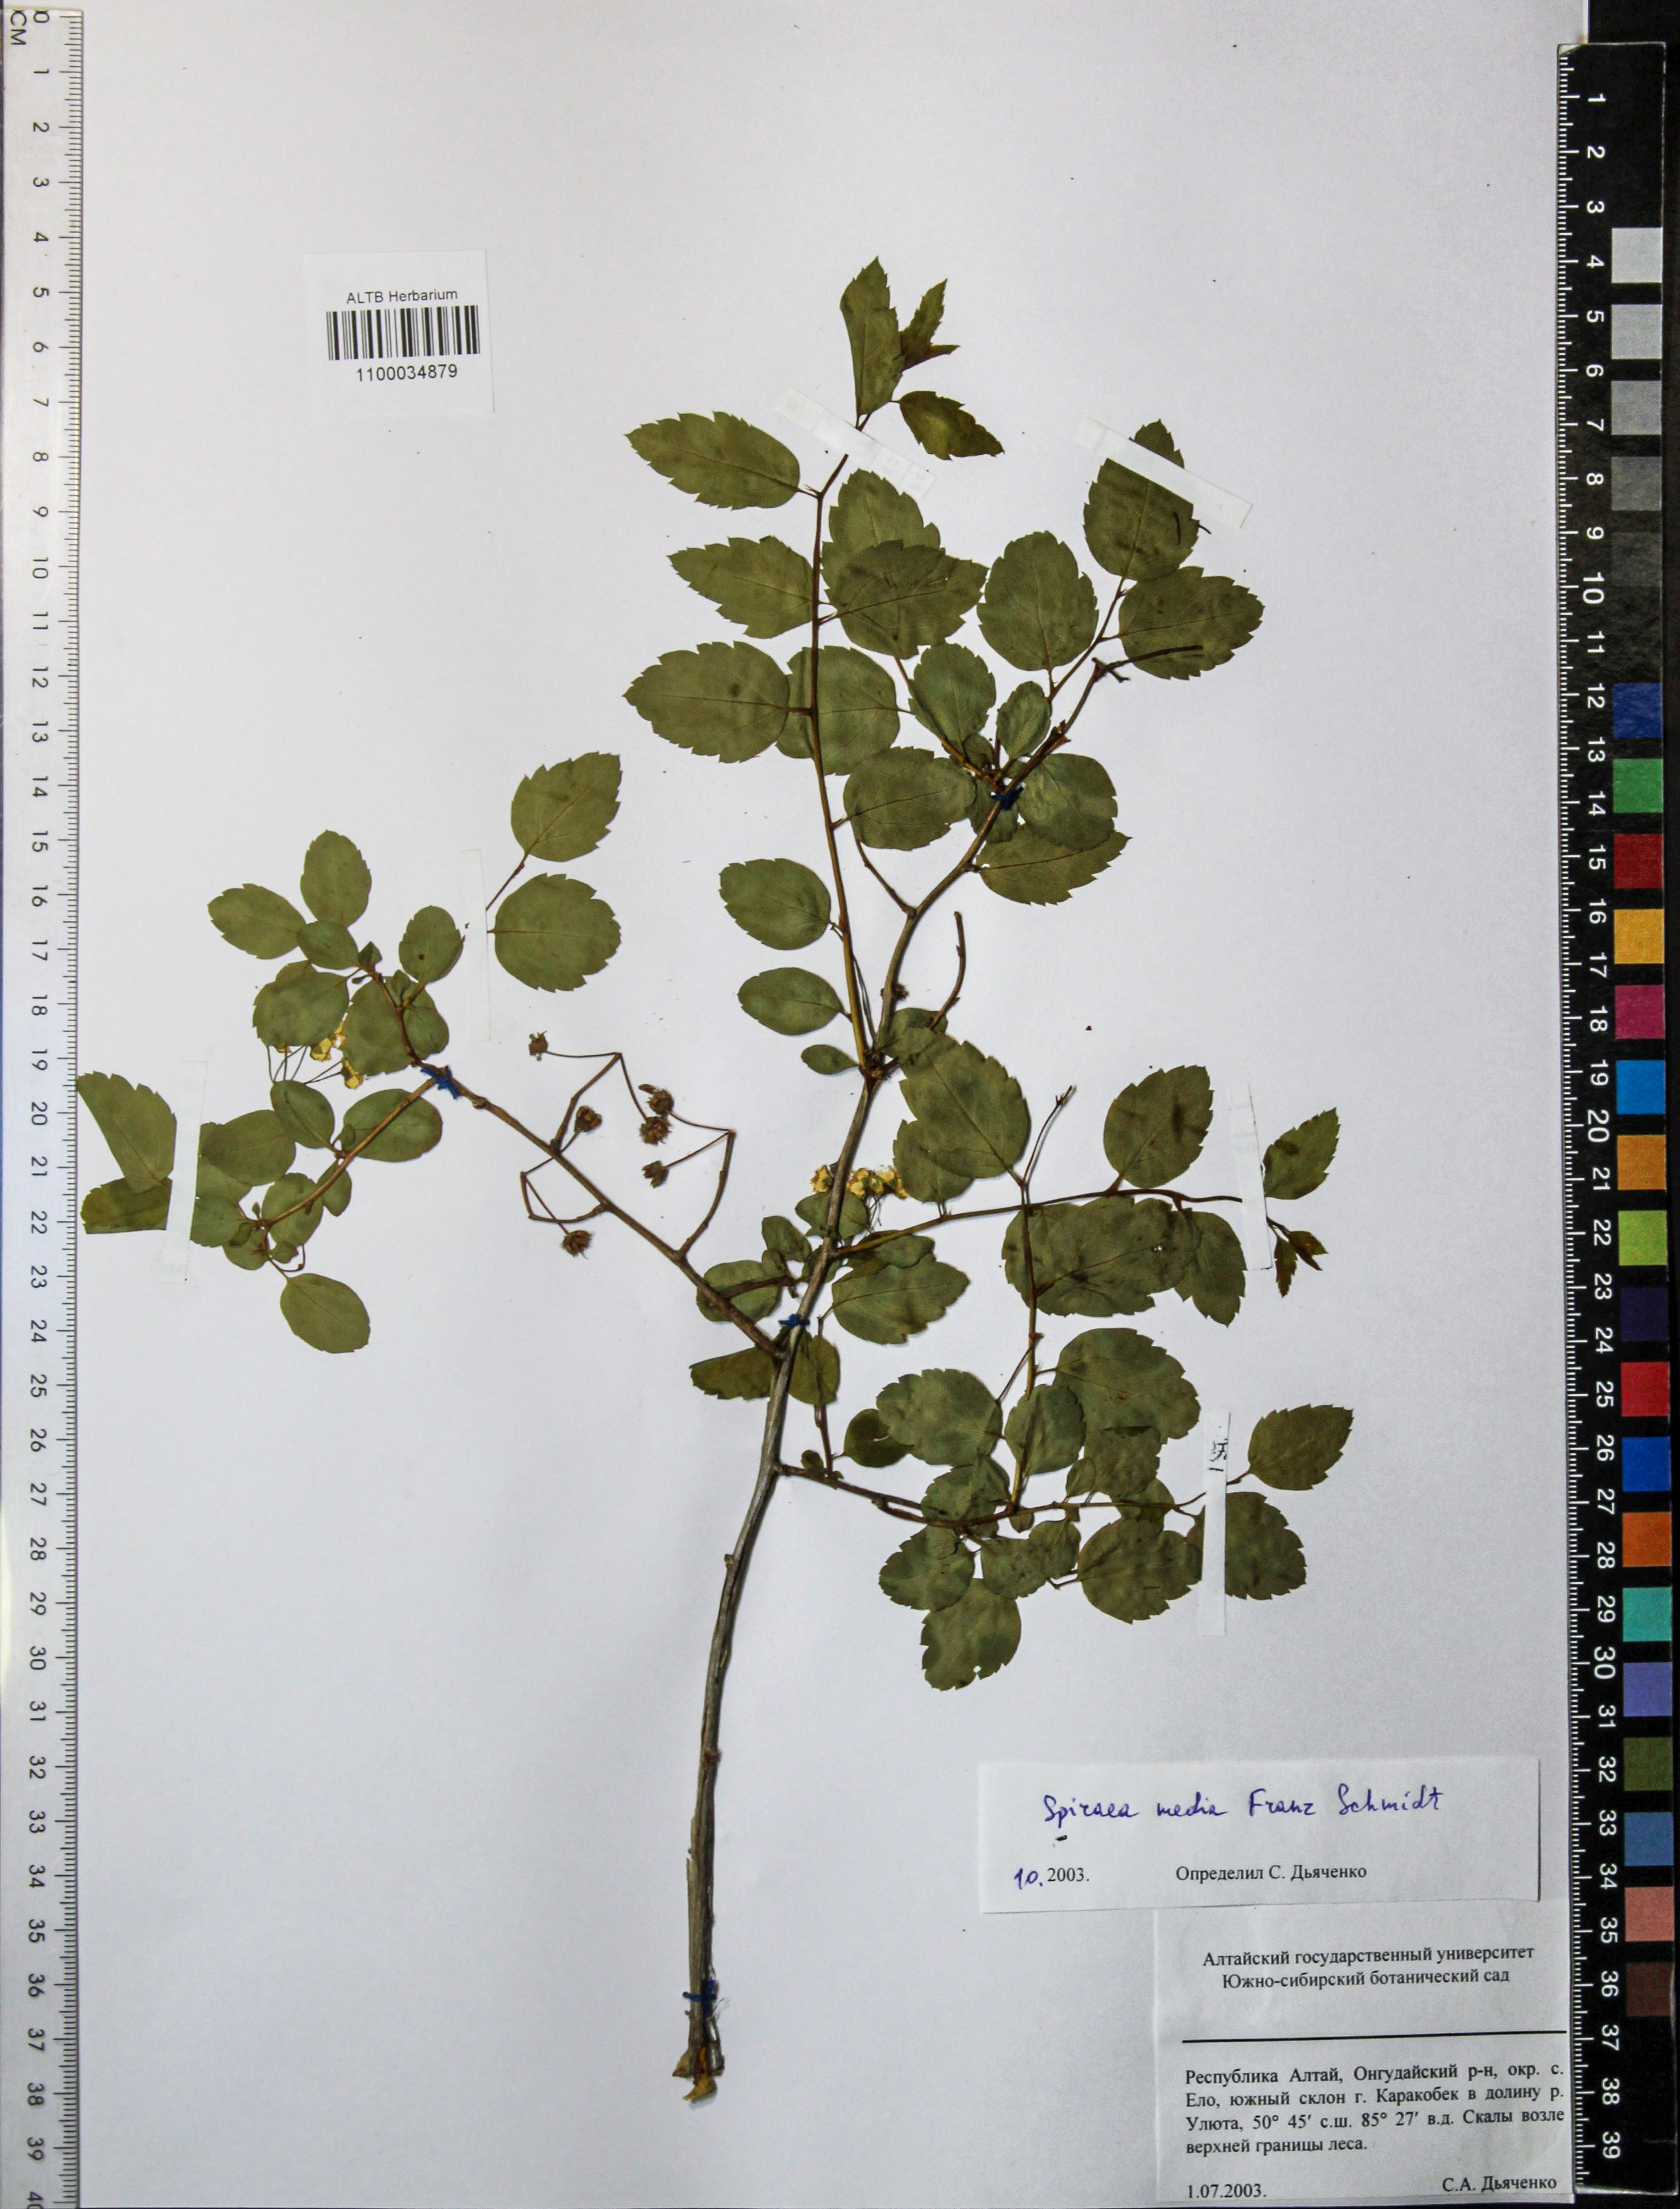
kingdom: Plantae
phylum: Tracheophyta
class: Magnoliopsida
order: Rosales
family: Rosaceae
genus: Spiraea
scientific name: Spiraea media
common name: Russian spiraea
